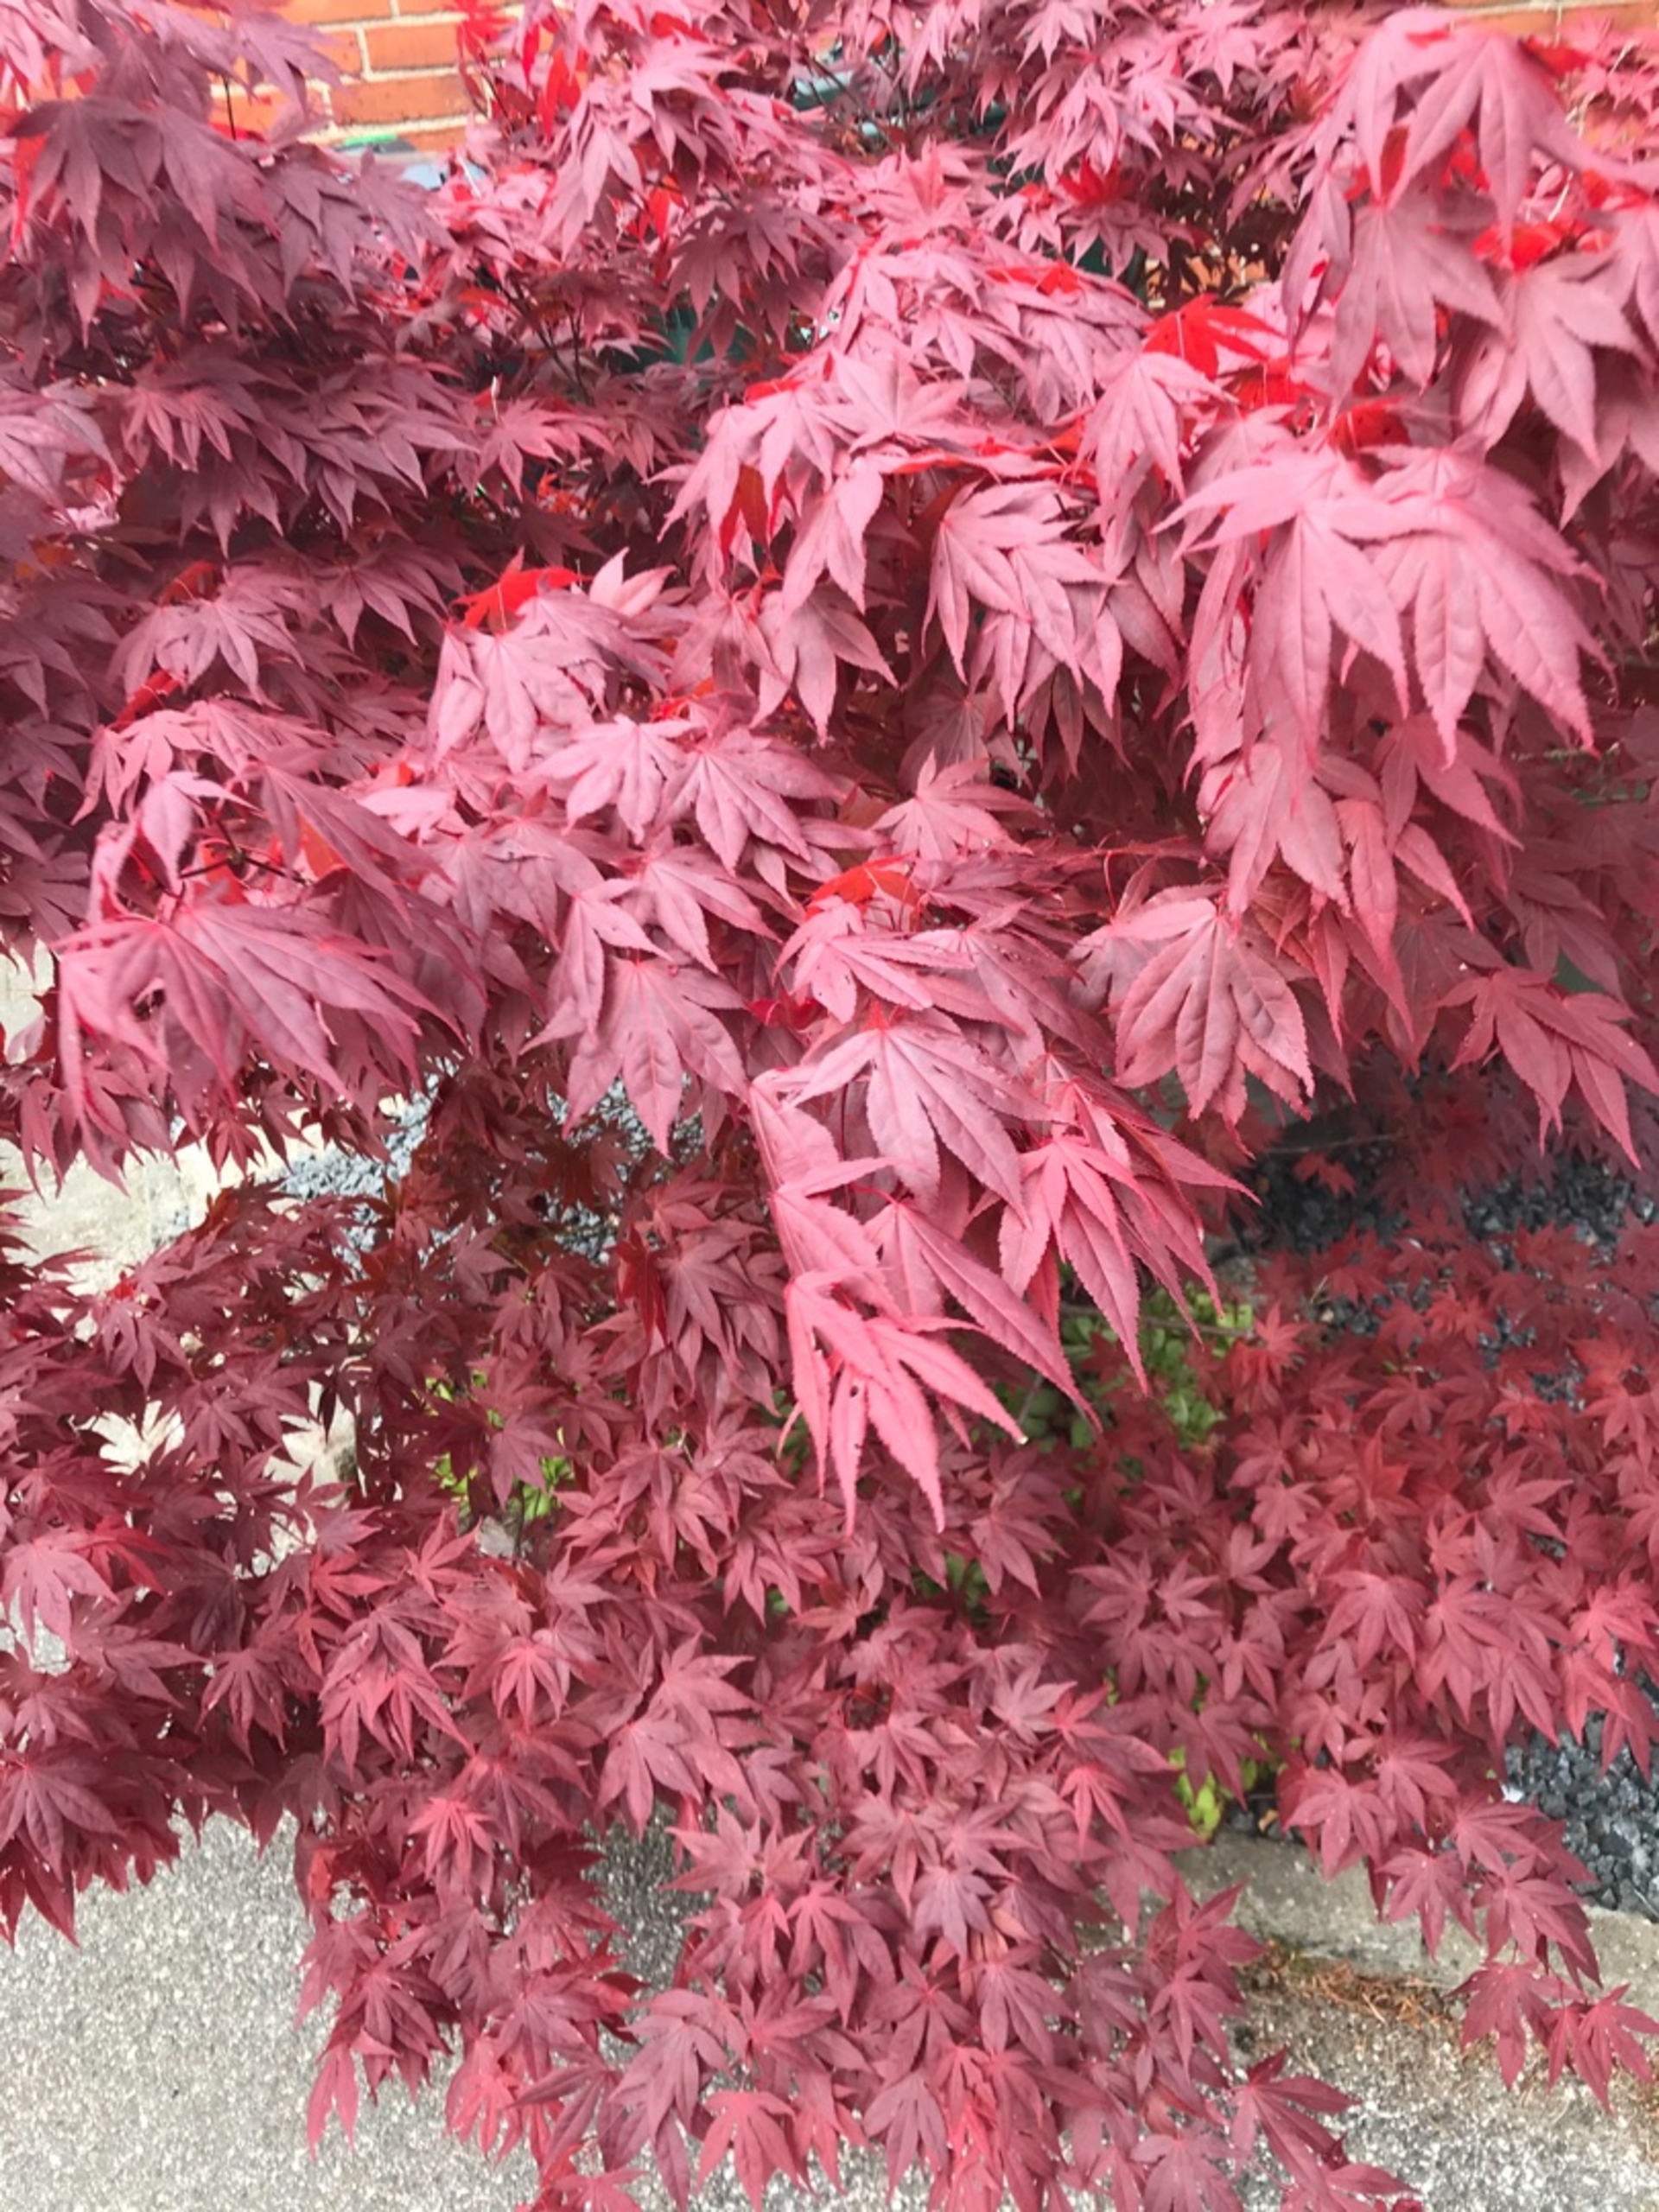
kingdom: Plantae
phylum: Tracheophyta
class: Magnoliopsida
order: Sapindales
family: Sapindaceae
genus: Acer
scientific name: Acer palmatum
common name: Japansk løn
